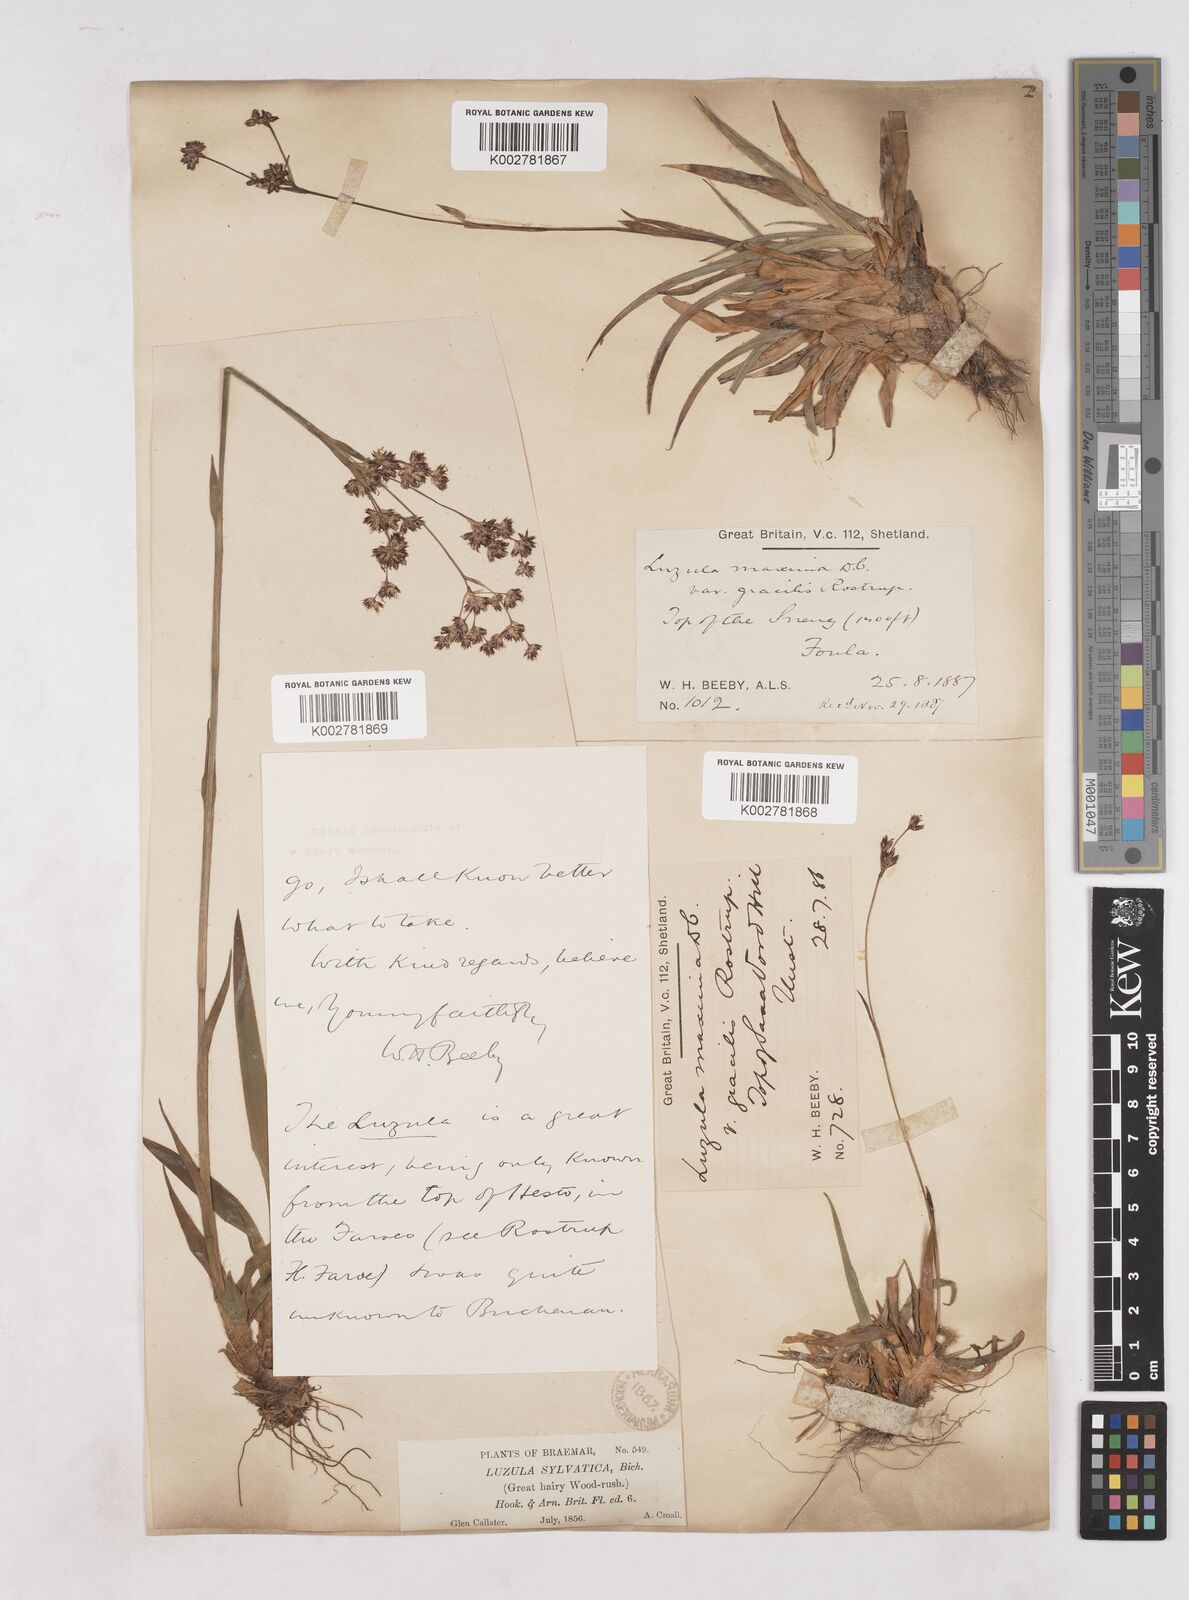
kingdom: Plantae
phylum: Tracheophyta
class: Liliopsida
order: Poales
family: Juncaceae
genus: Luzula
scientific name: Luzula sylvatica
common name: Great wood-rush
